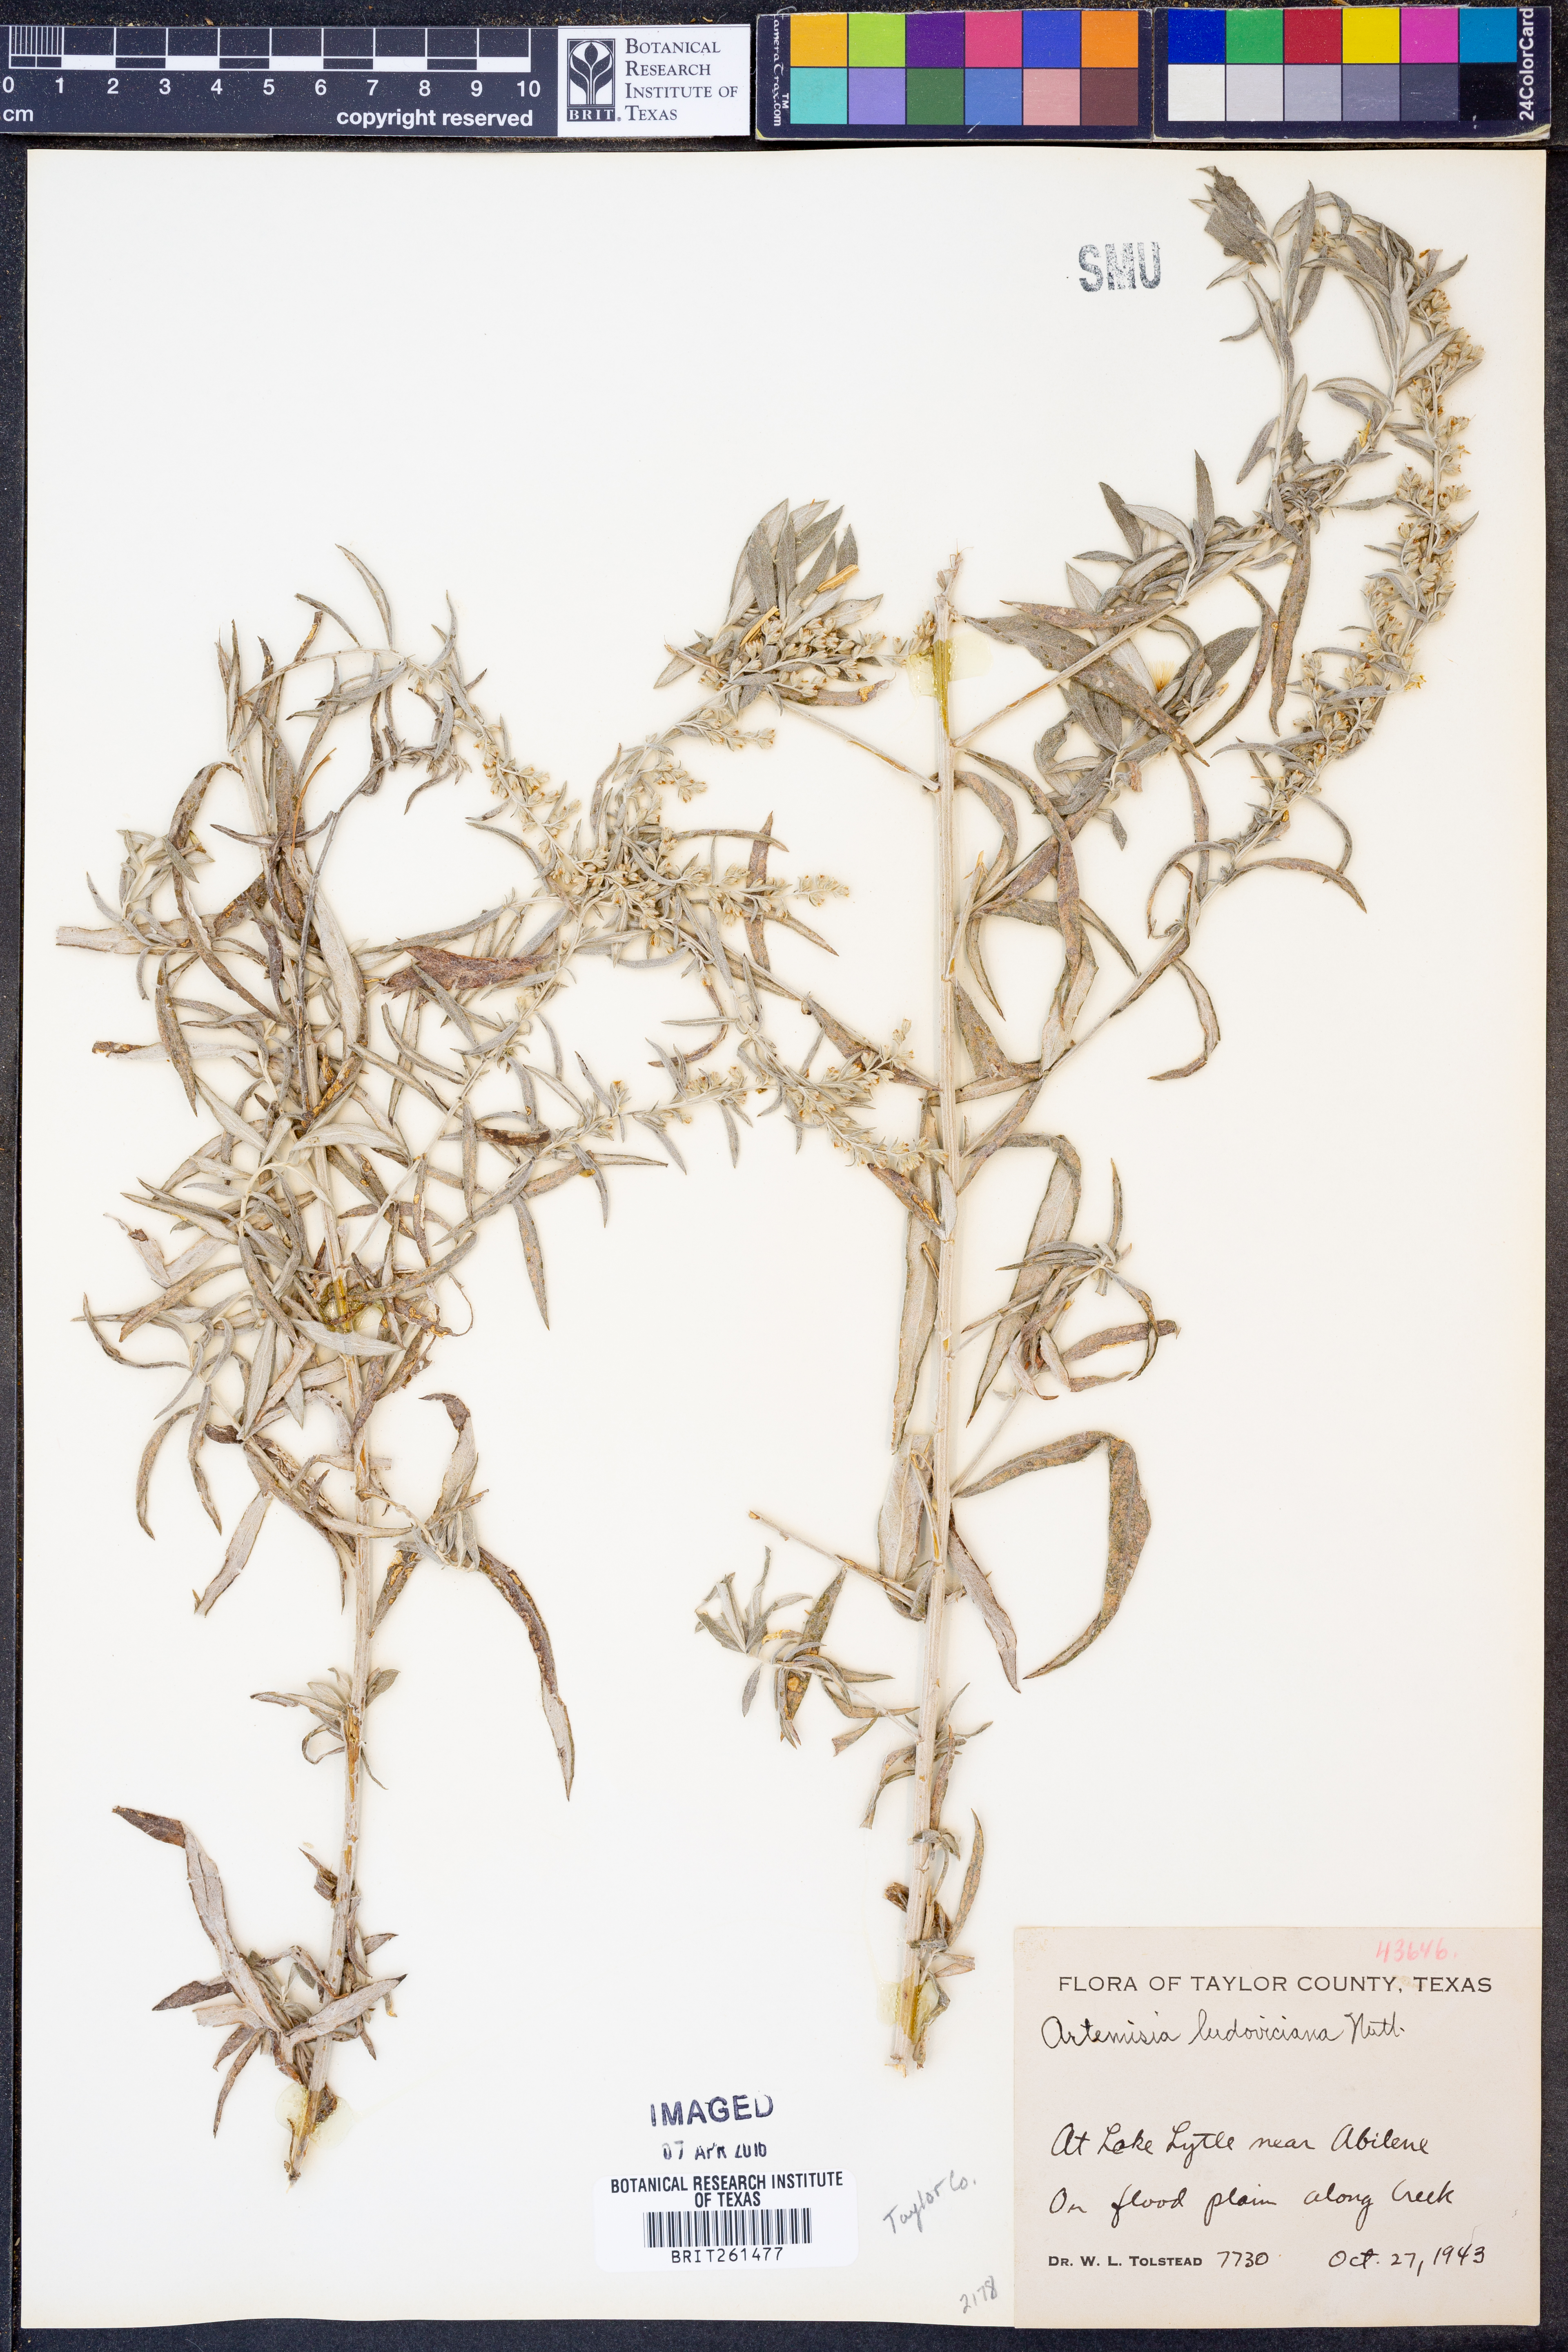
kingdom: Plantae
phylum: Tracheophyta
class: Magnoliopsida
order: Asterales
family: Asteraceae
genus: Artemisia
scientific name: Artemisia ludoviciana
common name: Western mugwort
